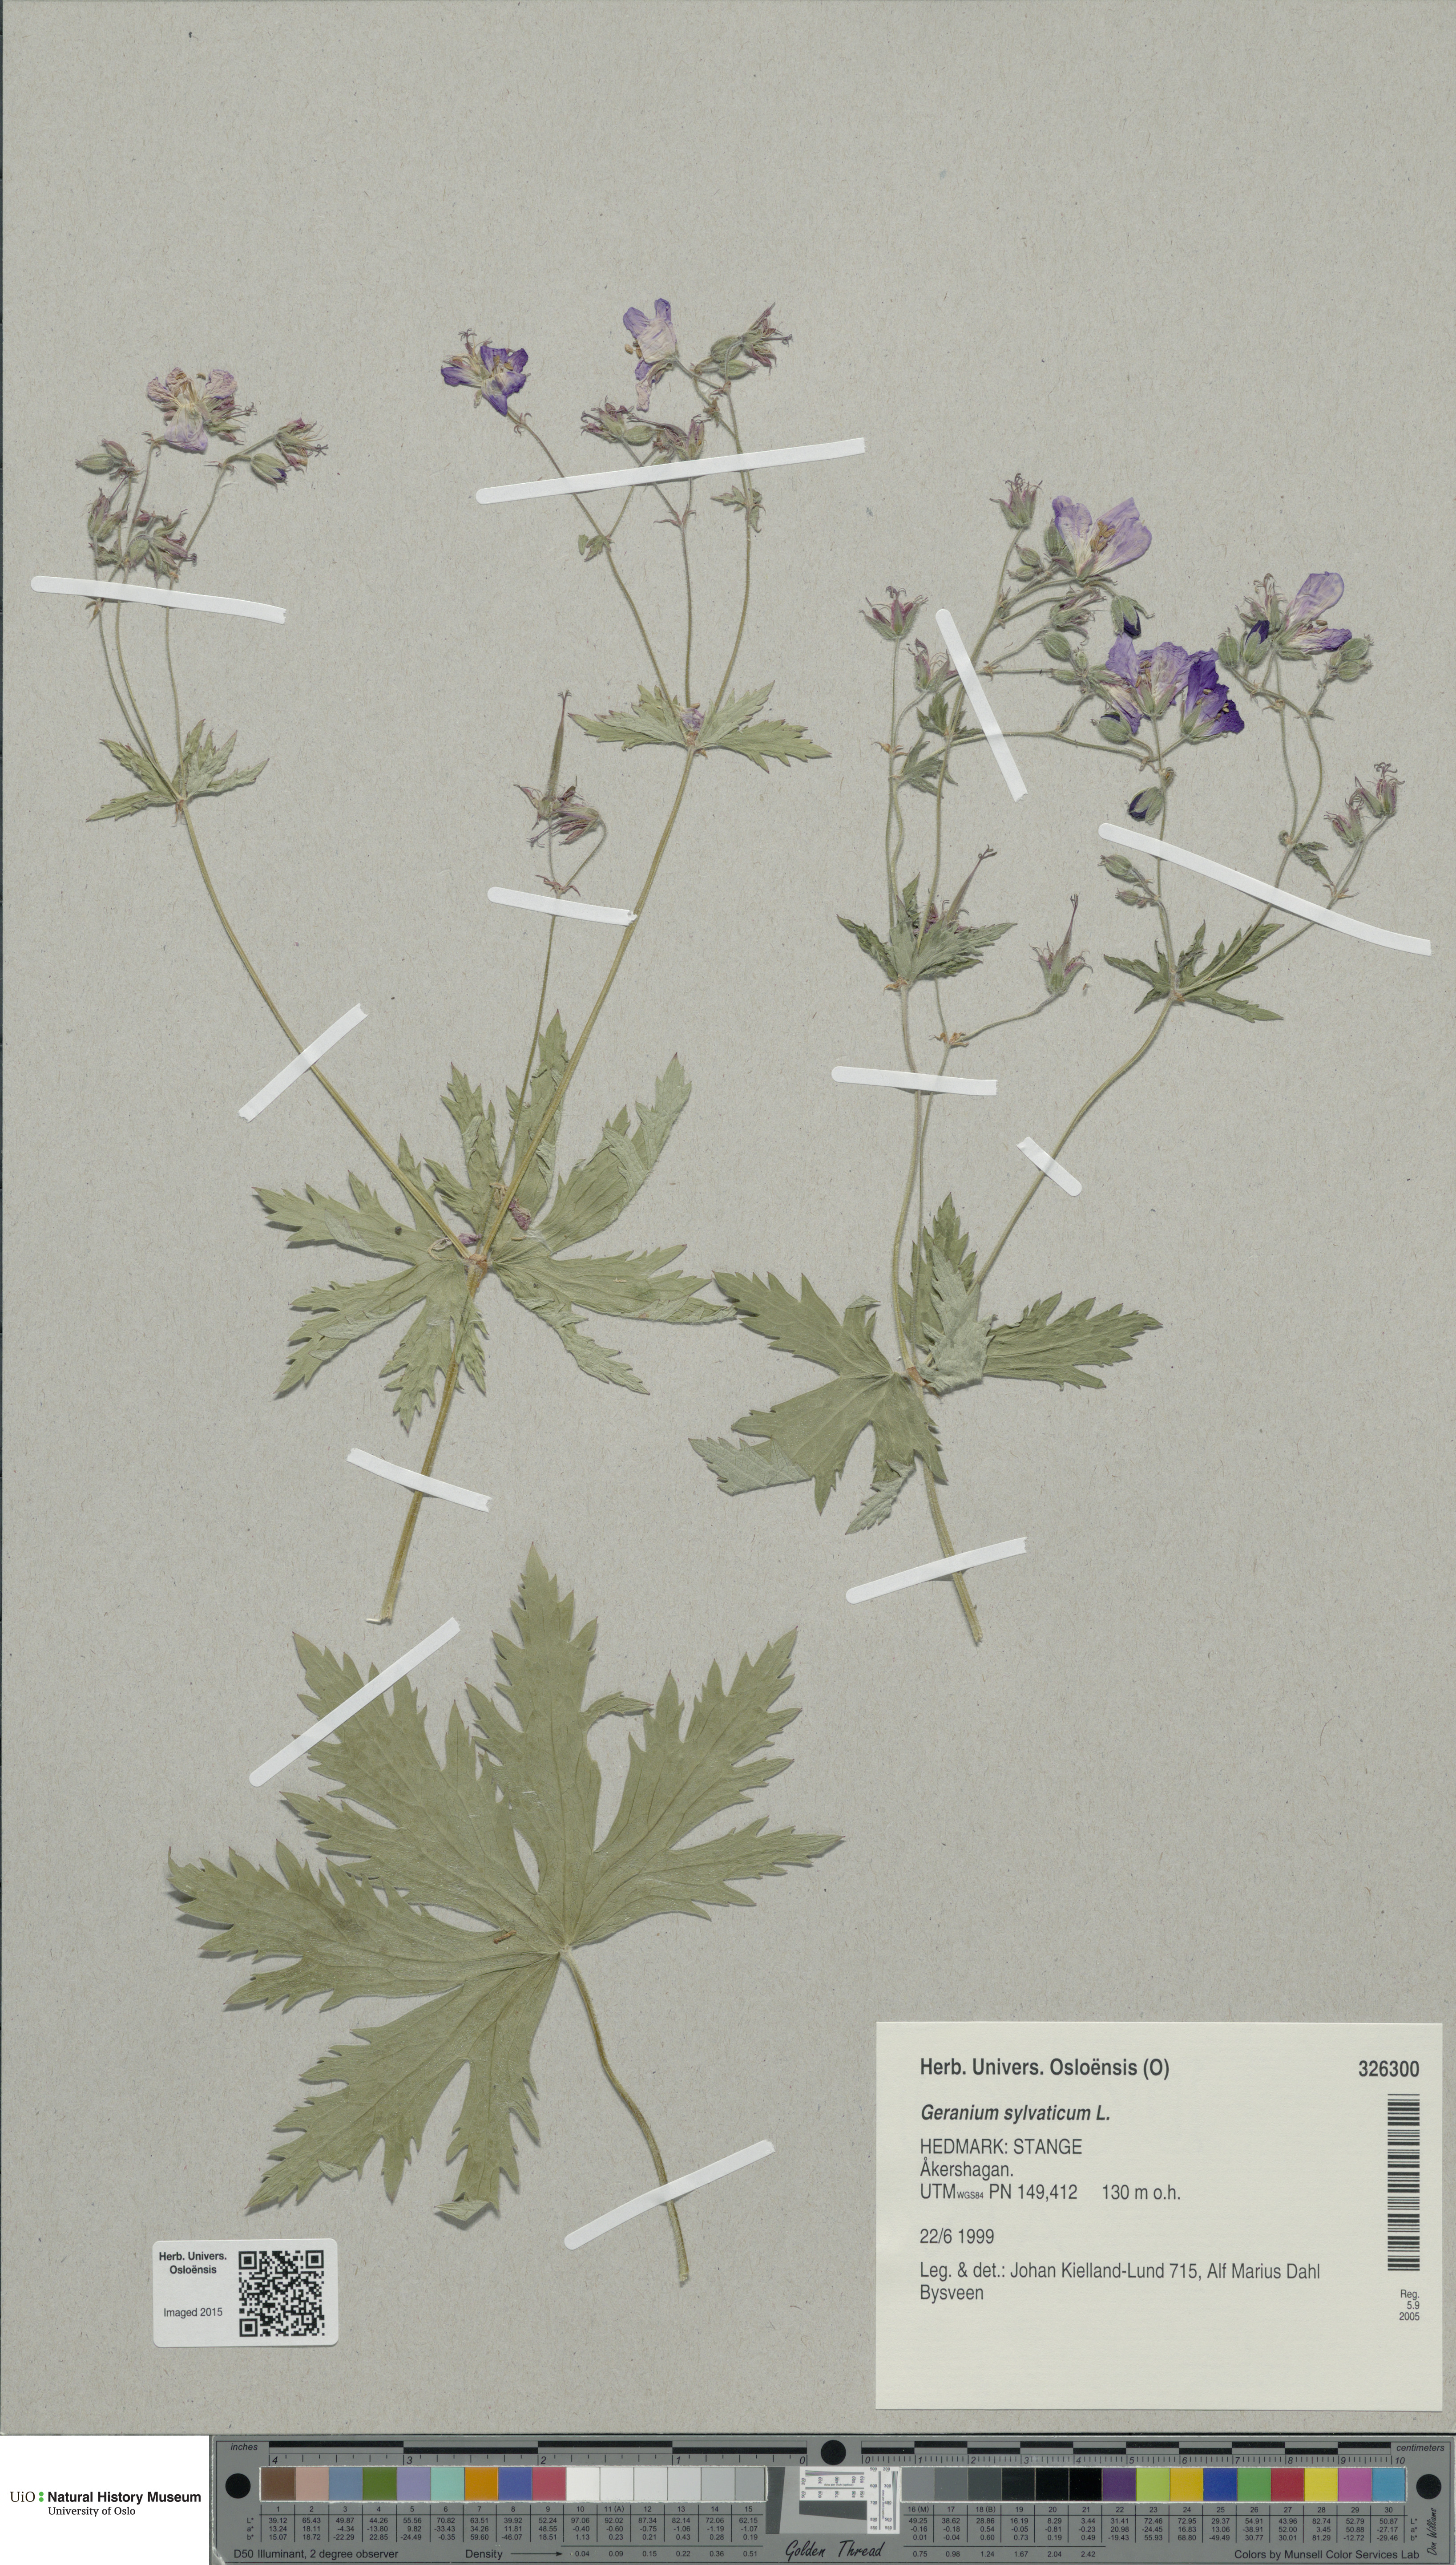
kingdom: Plantae
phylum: Tracheophyta
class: Magnoliopsida
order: Geraniales
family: Geraniaceae
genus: Geranium
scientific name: Geranium sylvaticum
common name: Wood crane's-bill
